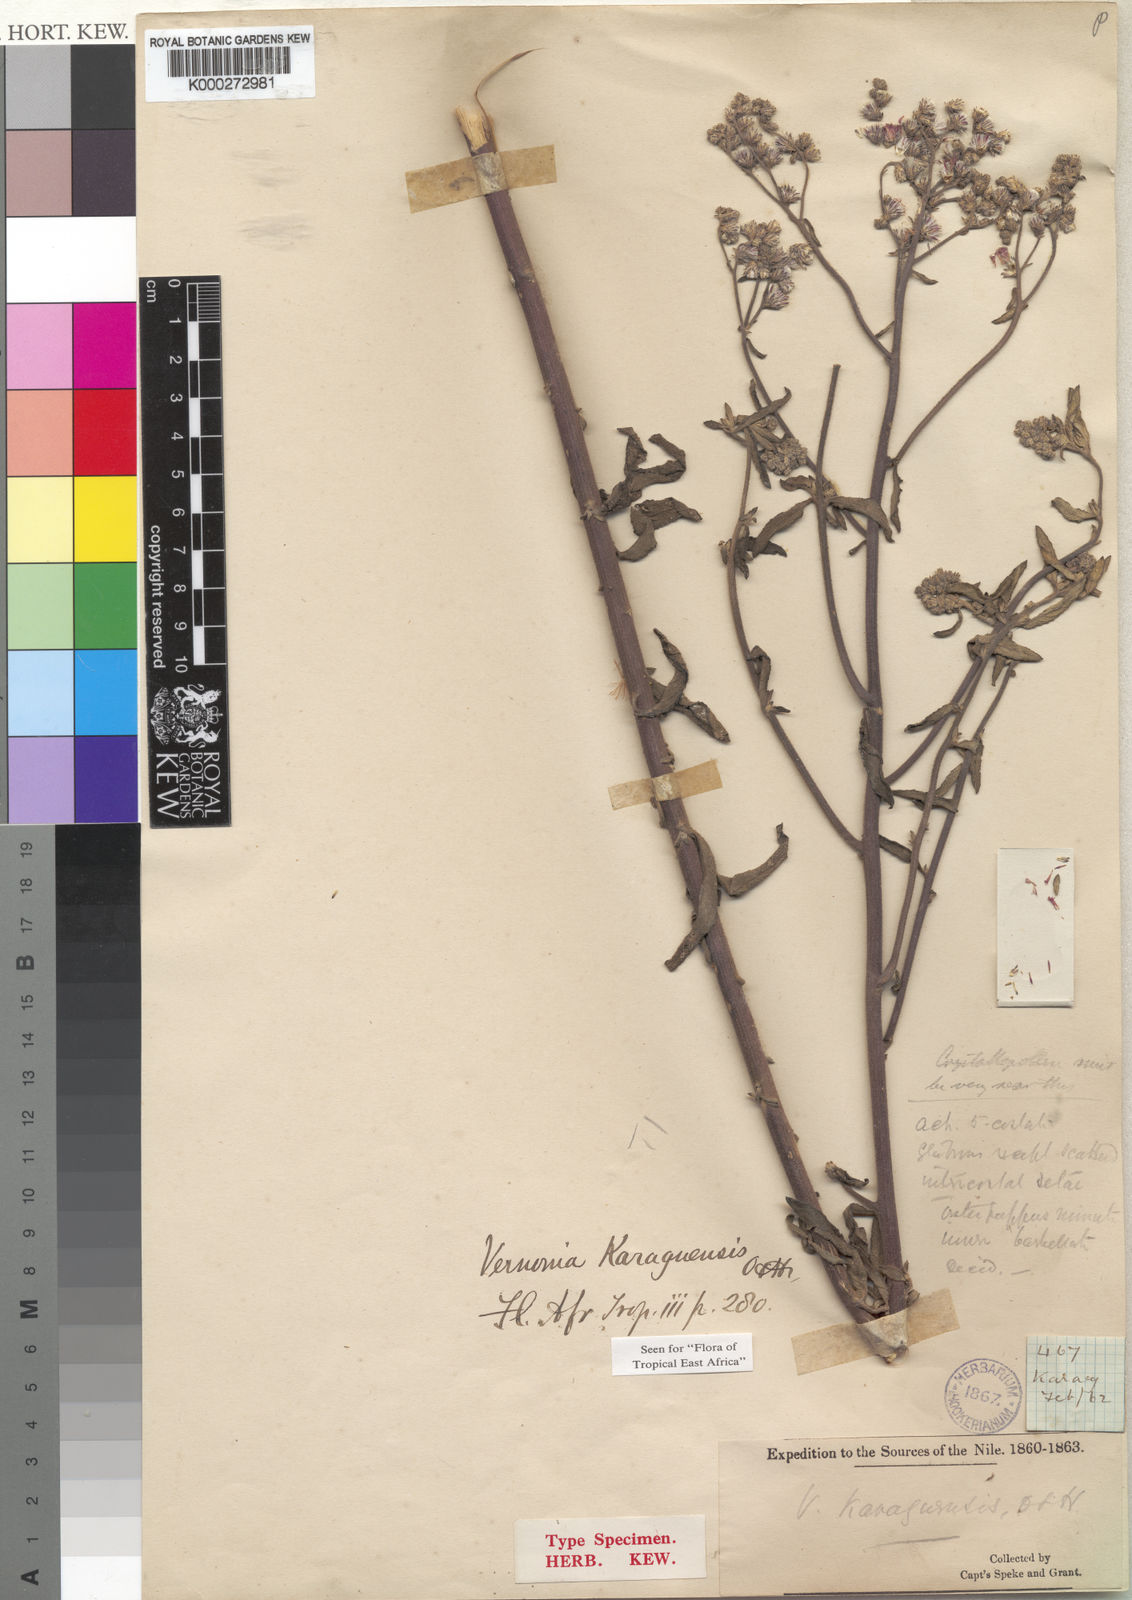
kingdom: Plantae
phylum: Tracheophyta
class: Magnoliopsida
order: Asterales
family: Asteraceae
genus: Orbivestus
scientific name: Orbivestus karaguensis
